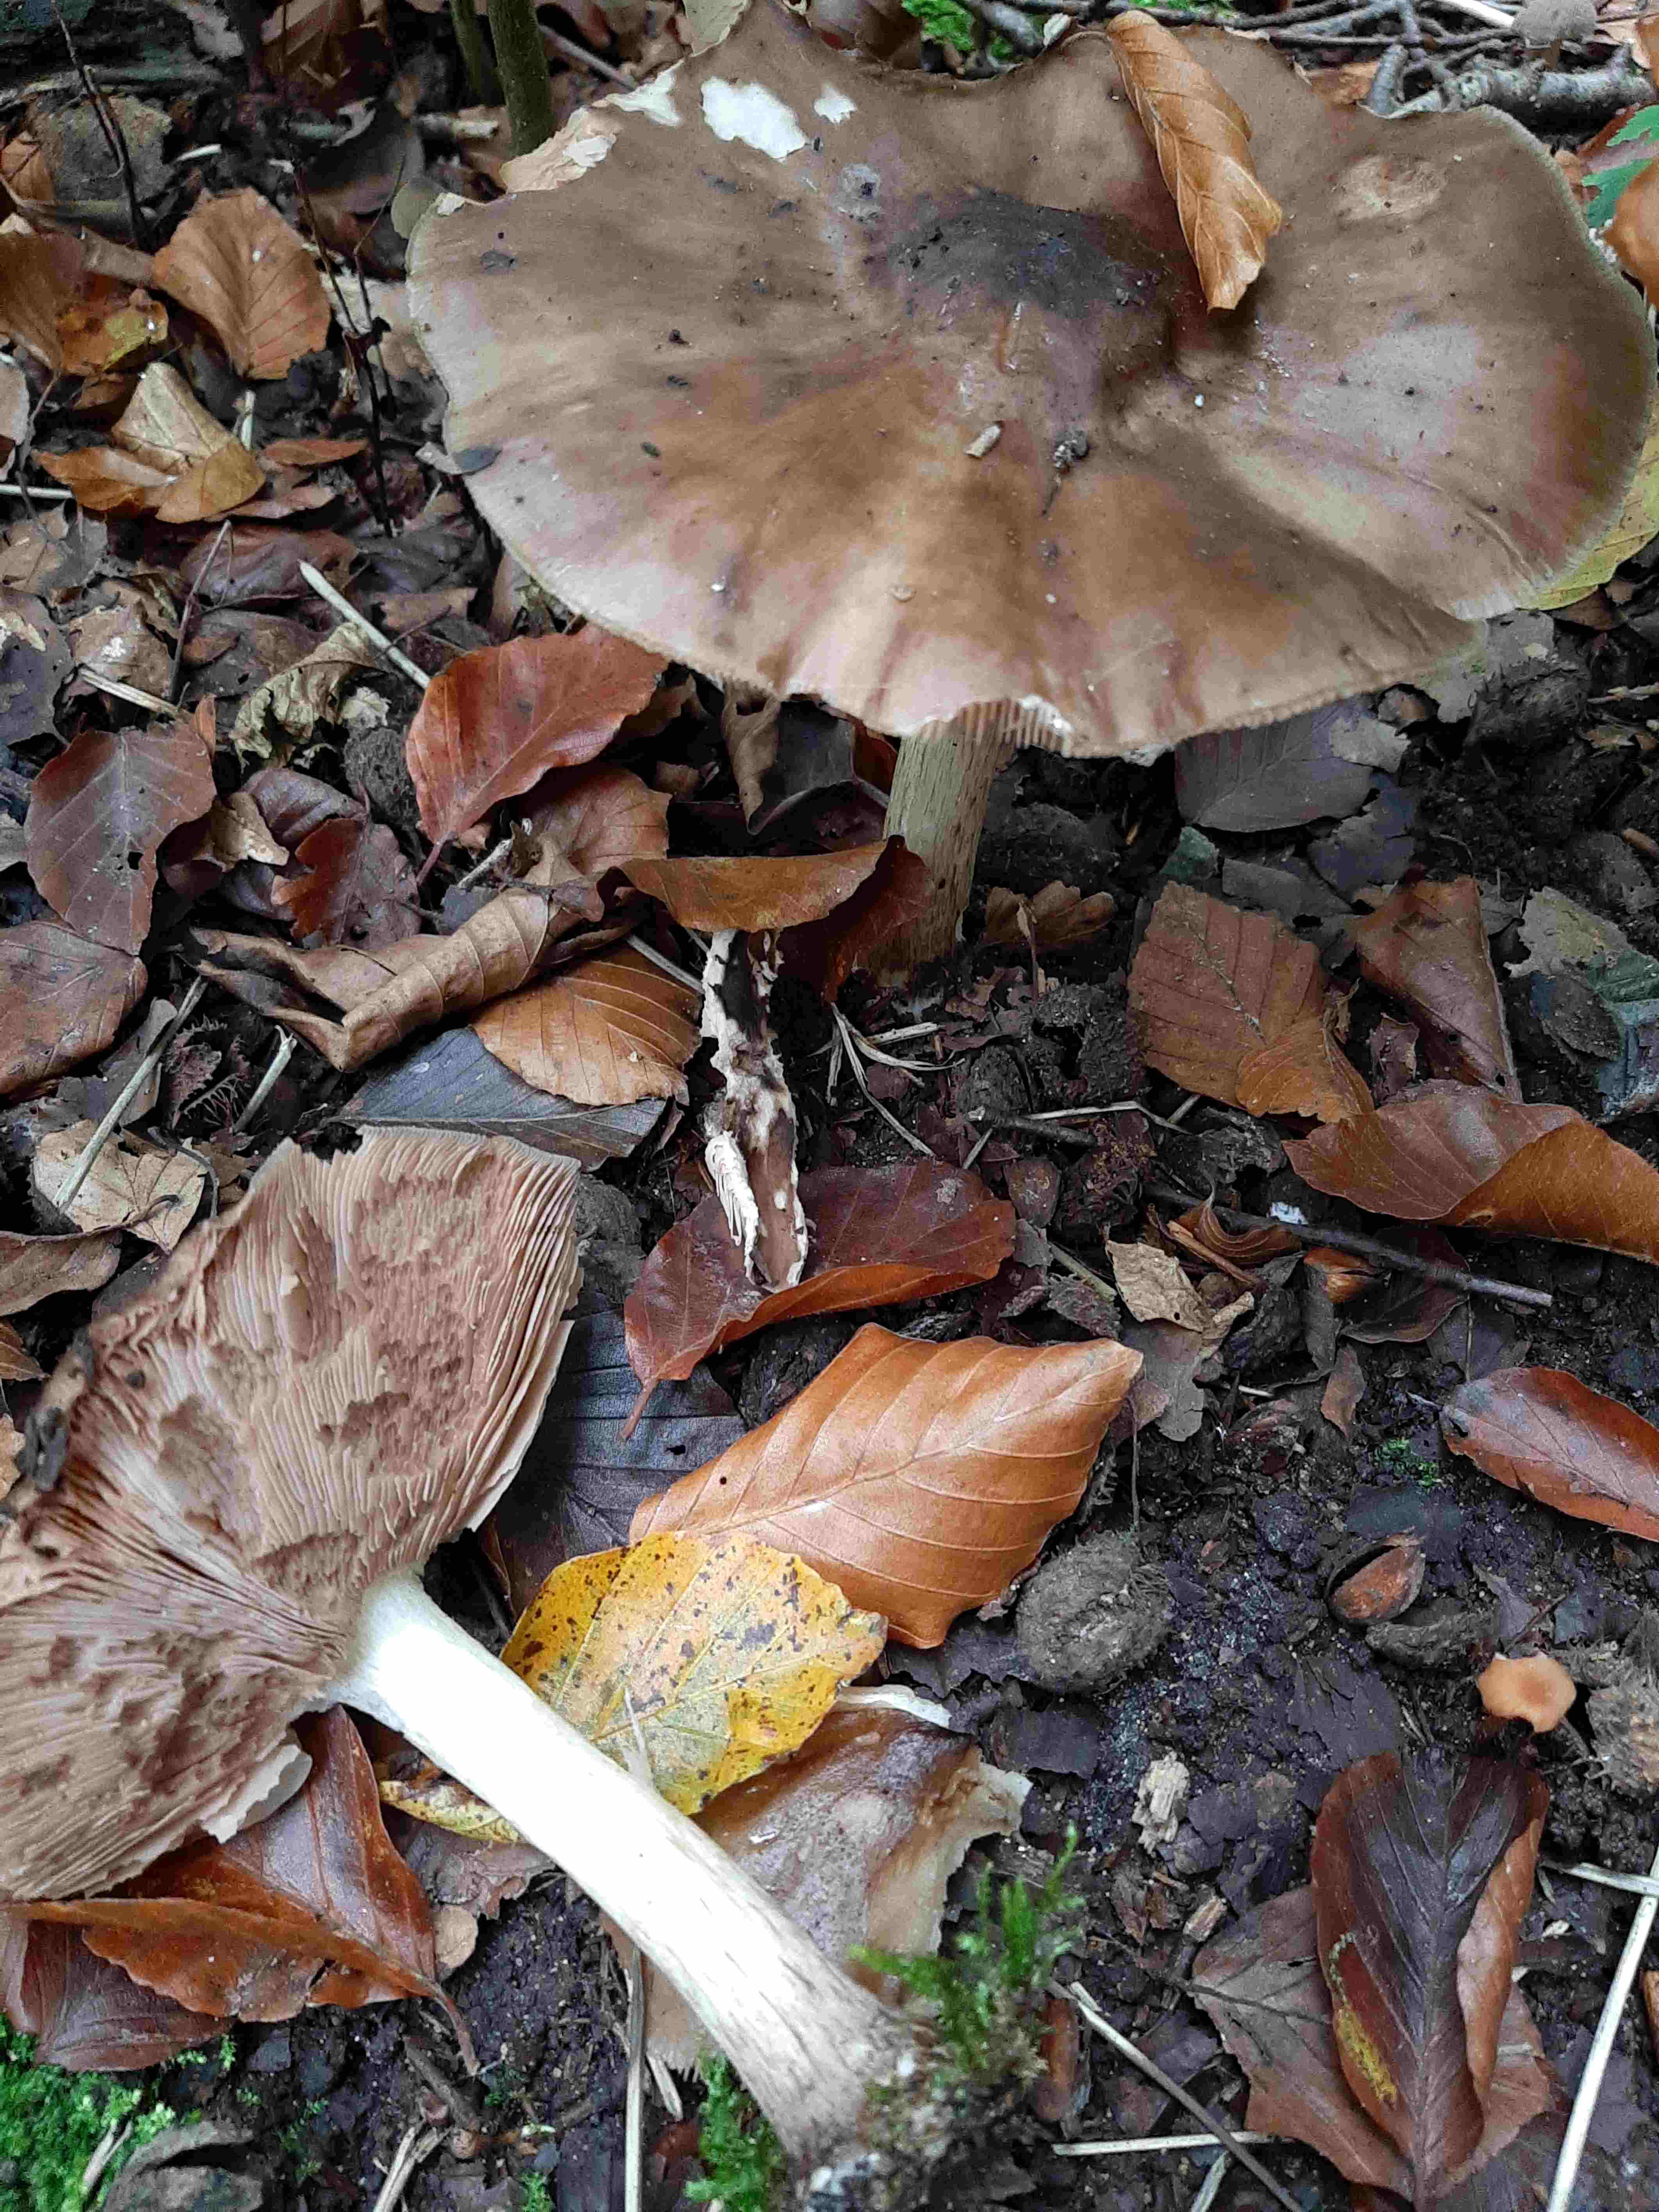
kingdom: Fungi
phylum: Basidiomycota
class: Agaricomycetes
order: Agaricales
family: Pluteaceae
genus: Pluteus
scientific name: Pluteus cervinus
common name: sodfarvet skærmhat
